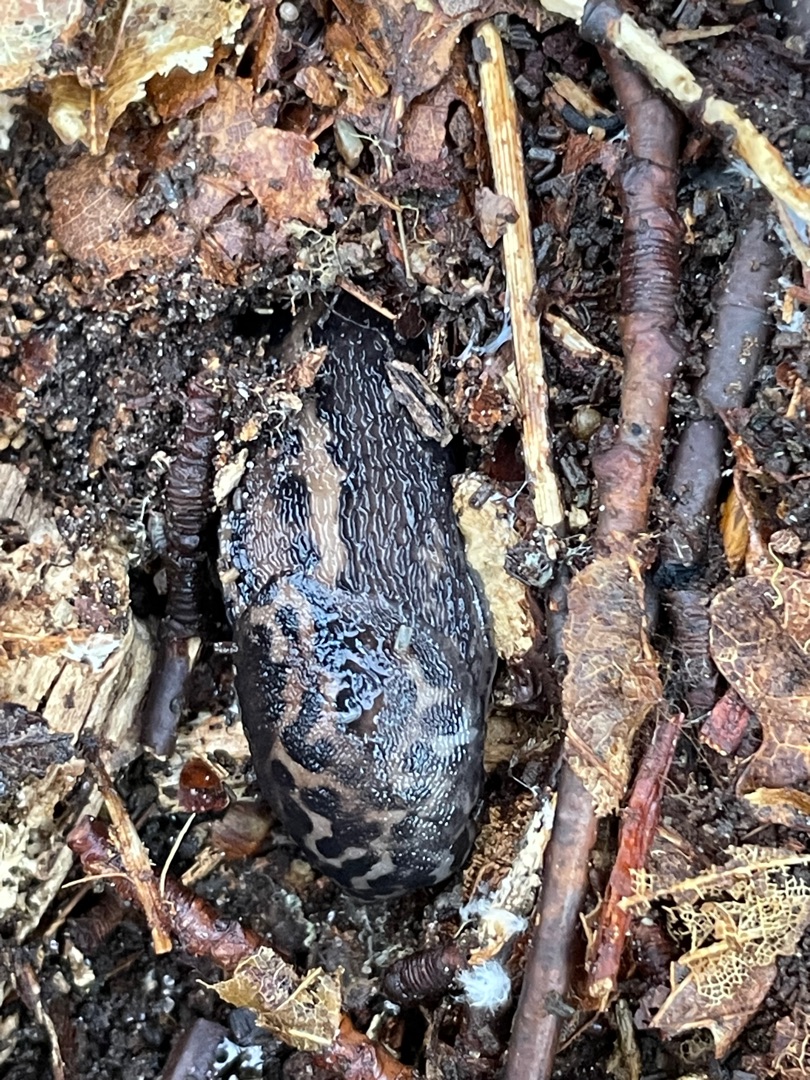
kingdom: Animalia
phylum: Mollusca
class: Gastropoda
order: Stylommatophora
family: Limacidae
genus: Limax
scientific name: Limax maximus
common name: Pantersnegl
